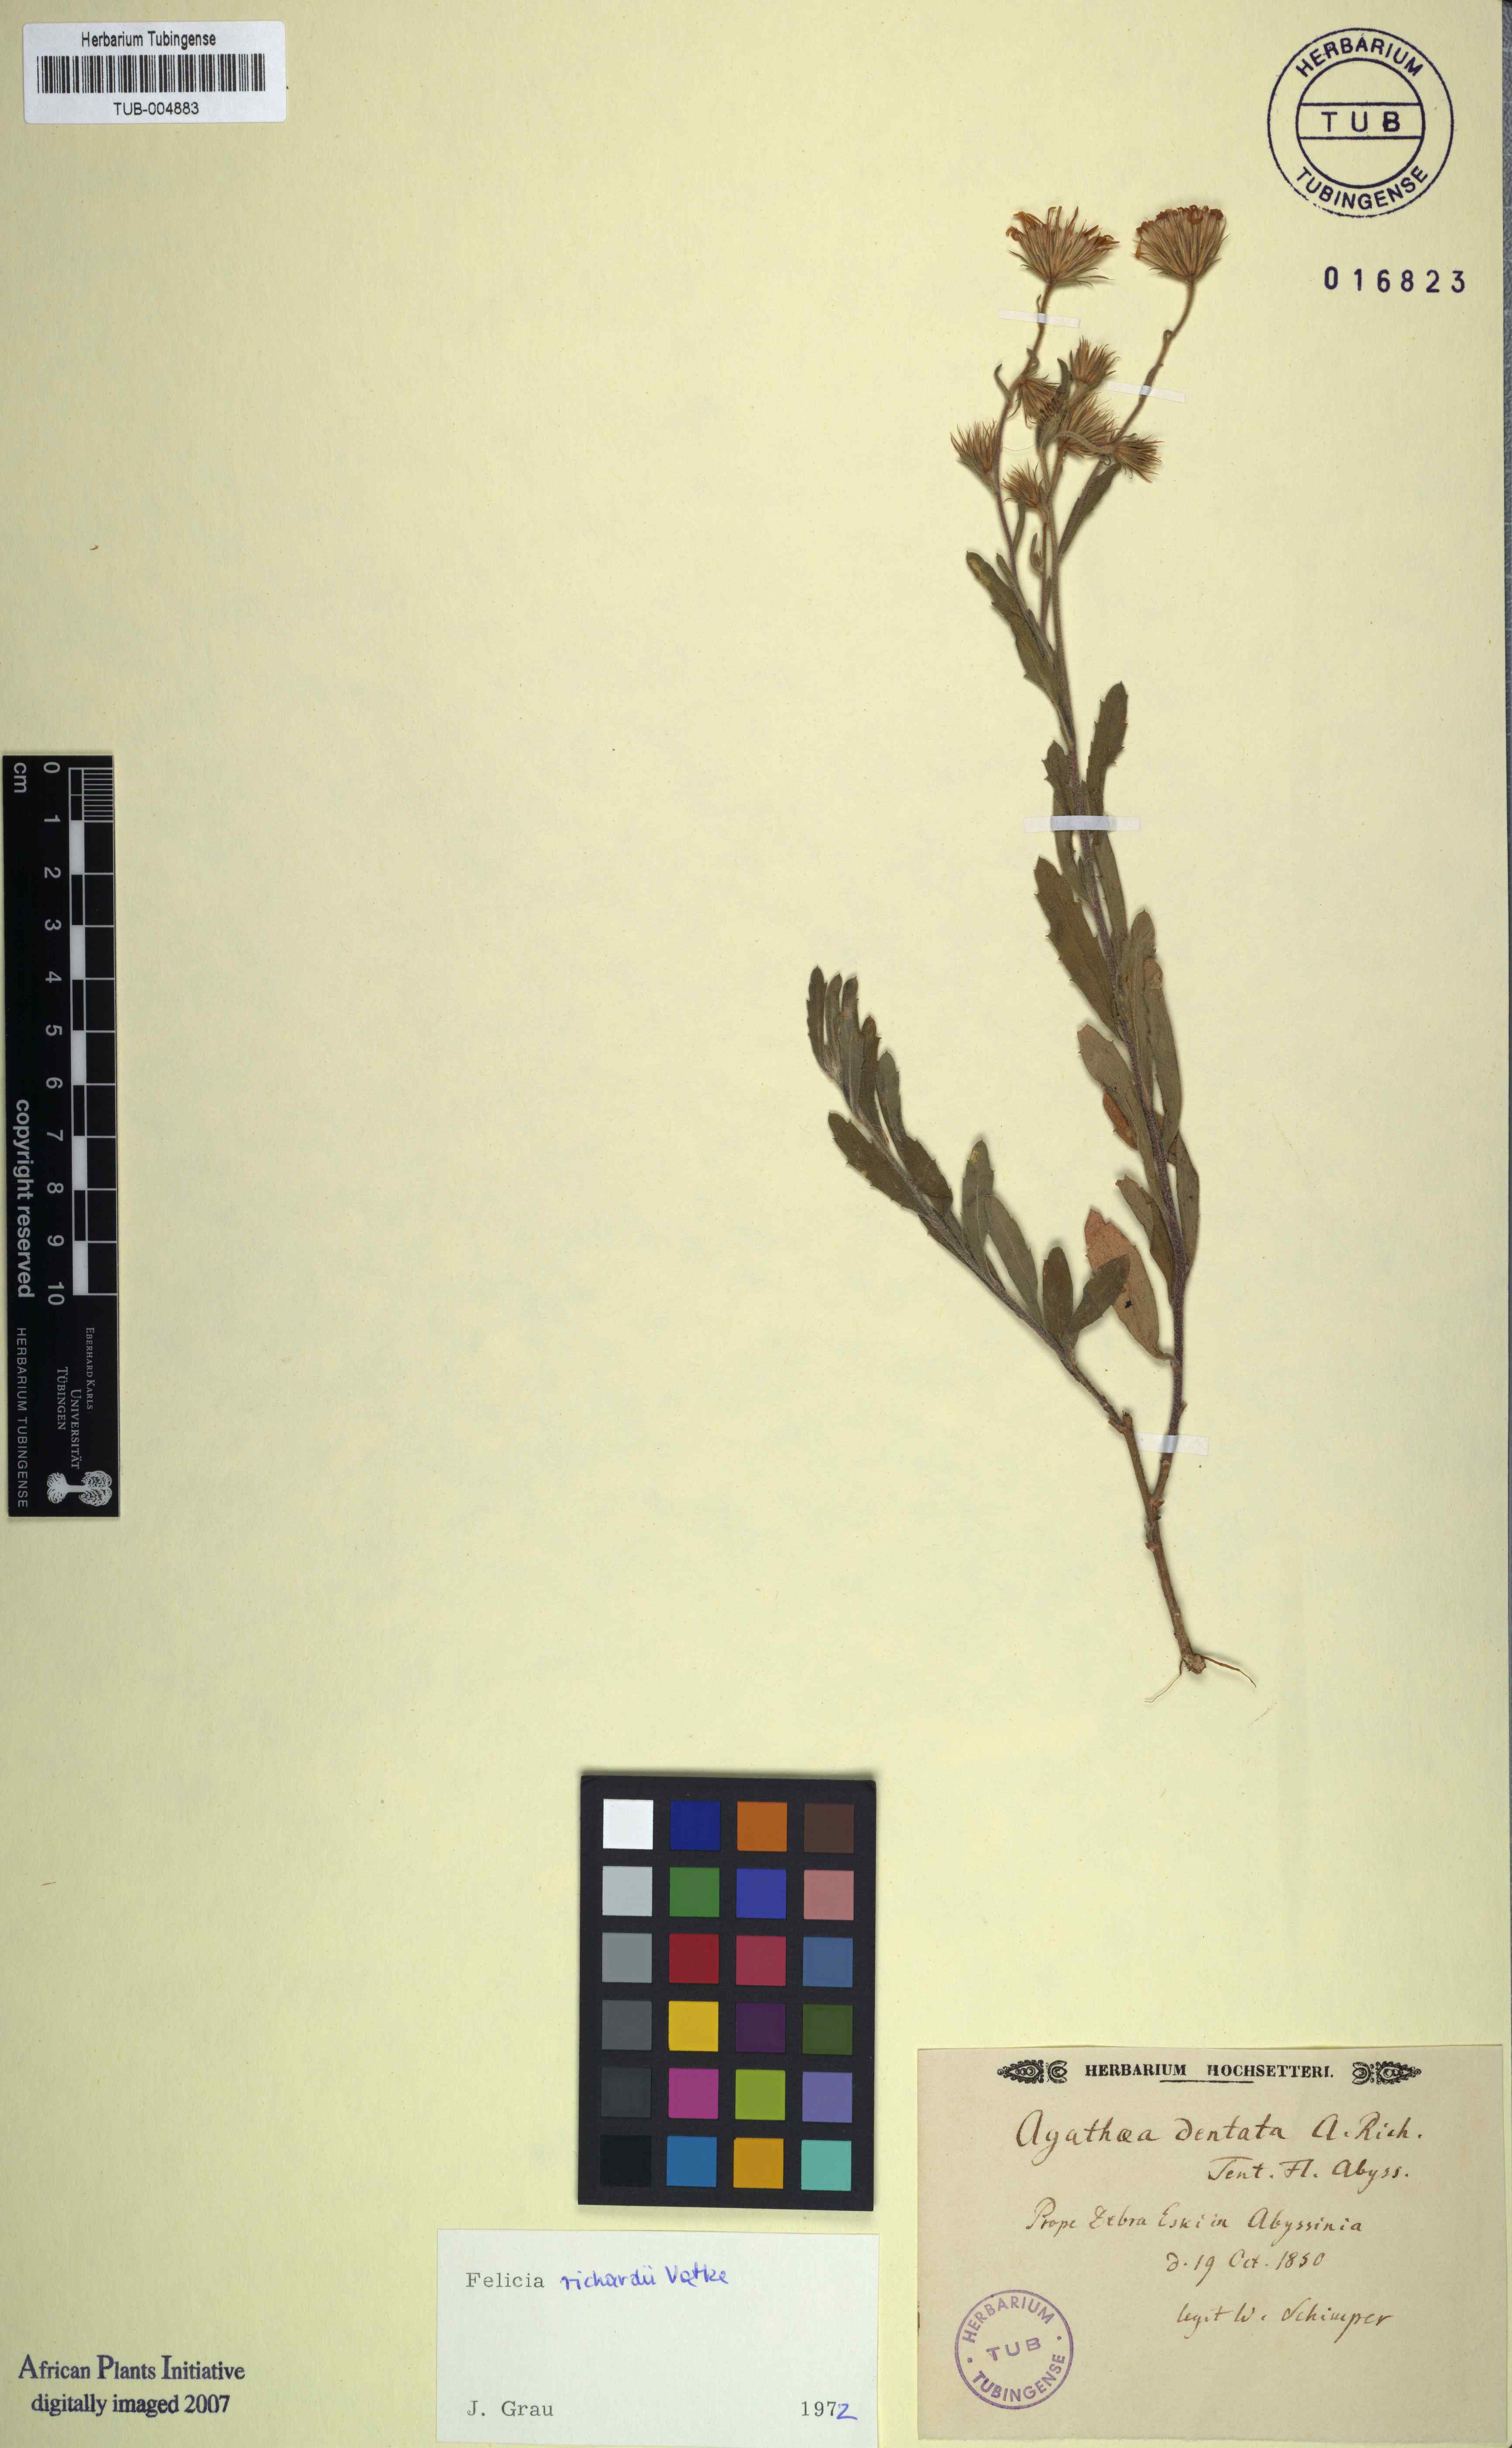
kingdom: Plantae
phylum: Tracheophyta
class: Magnoliopsida
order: Asterales
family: Asteraceae
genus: Felicia
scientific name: Felicia dentata
